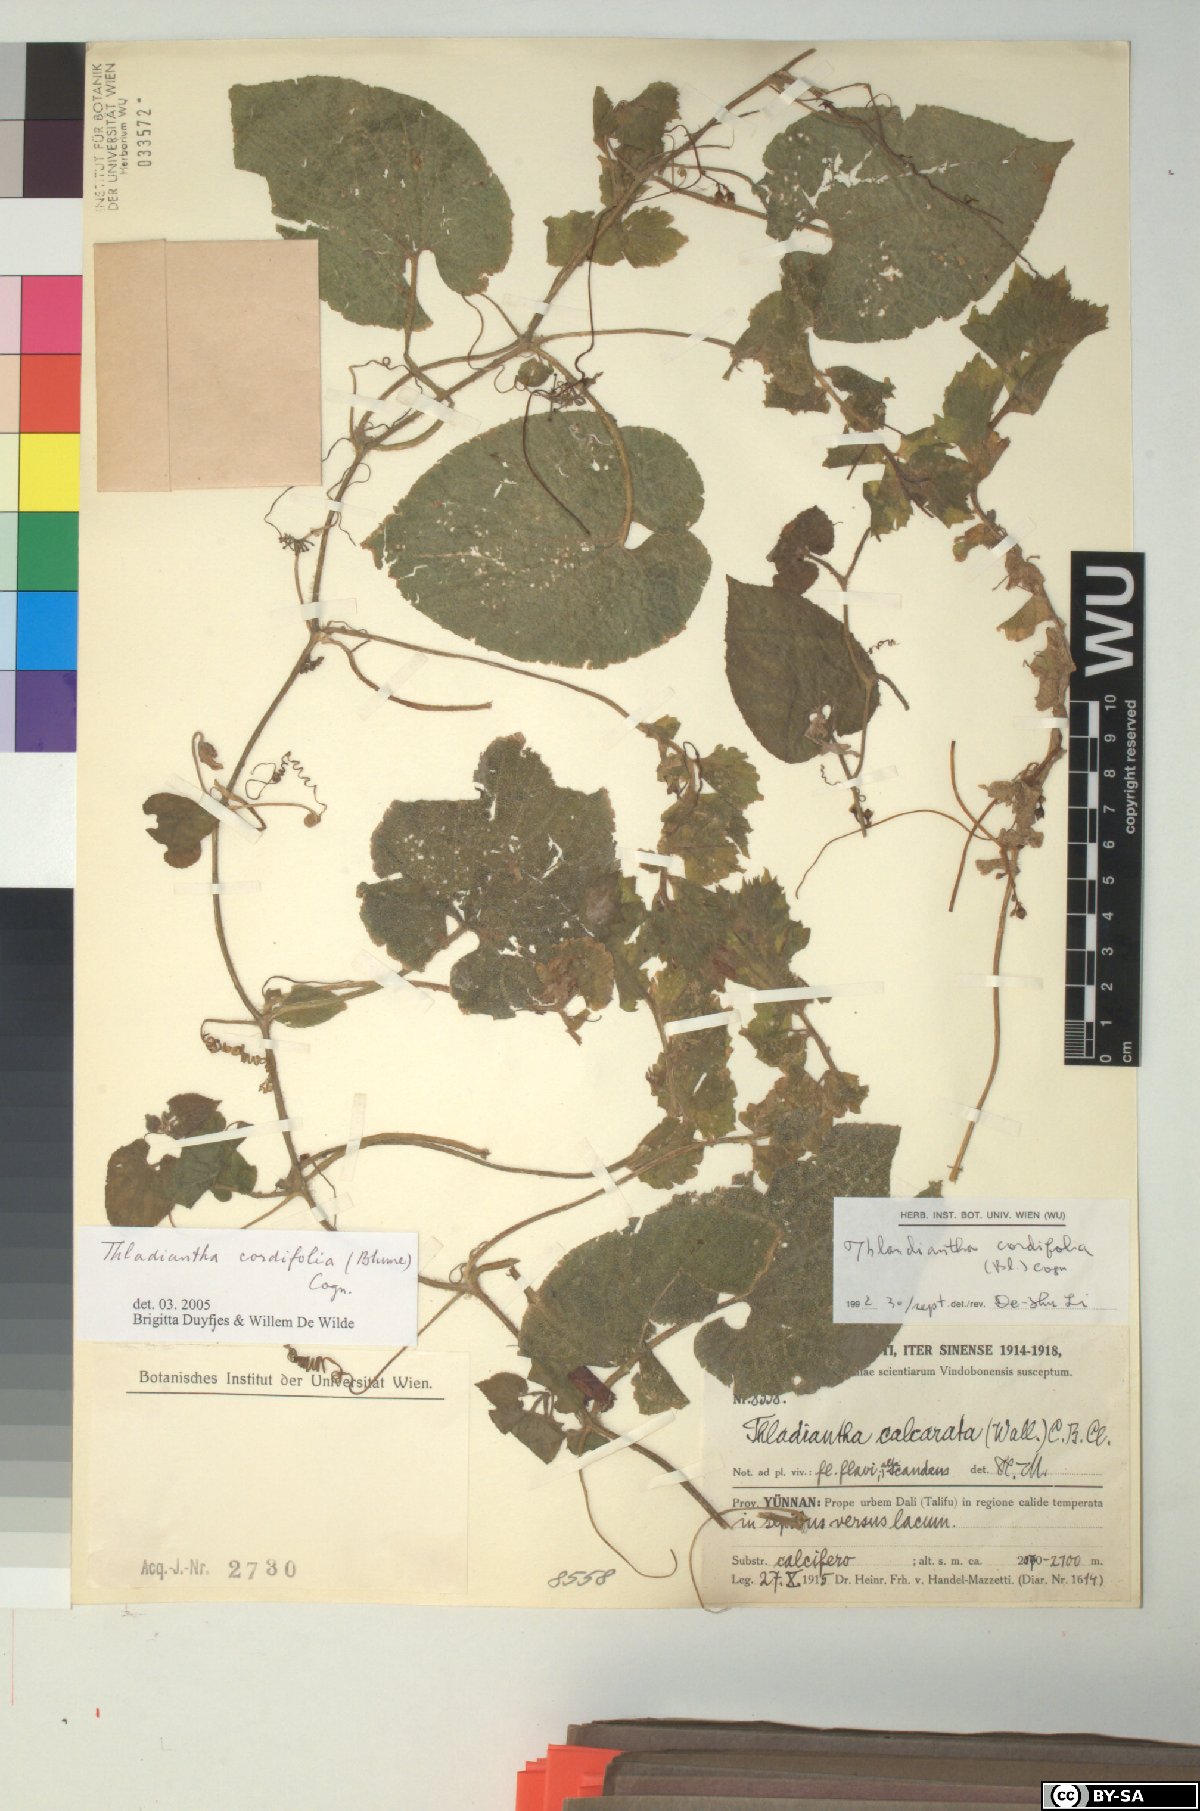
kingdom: Plantae
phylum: Tracheophyta
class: Magnoliopsida
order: Cucurbitales
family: Cucurbitaceae
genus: Thladiantha
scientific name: Thladiantha cordifolia
